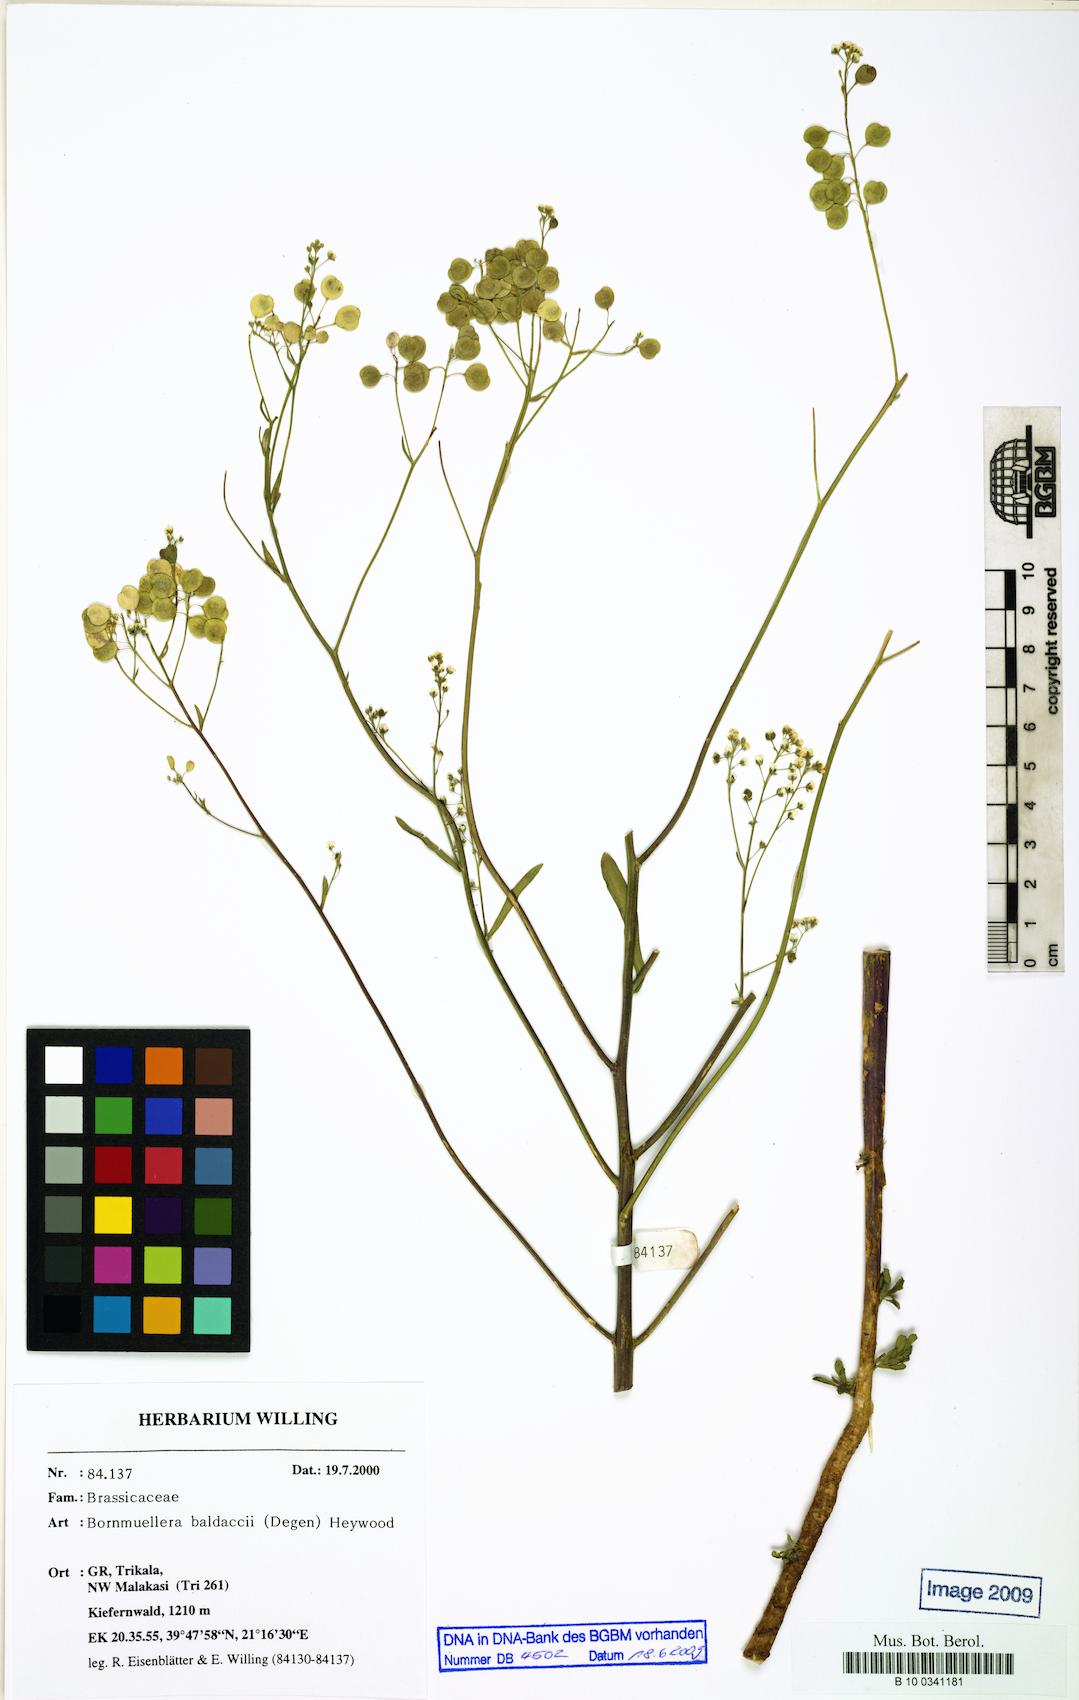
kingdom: Plantae
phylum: Tracheophyta
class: Magnoliopsida
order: Brassicales
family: Brassicaceae
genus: Bornmuellera
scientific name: Bornmuellera emarginata
